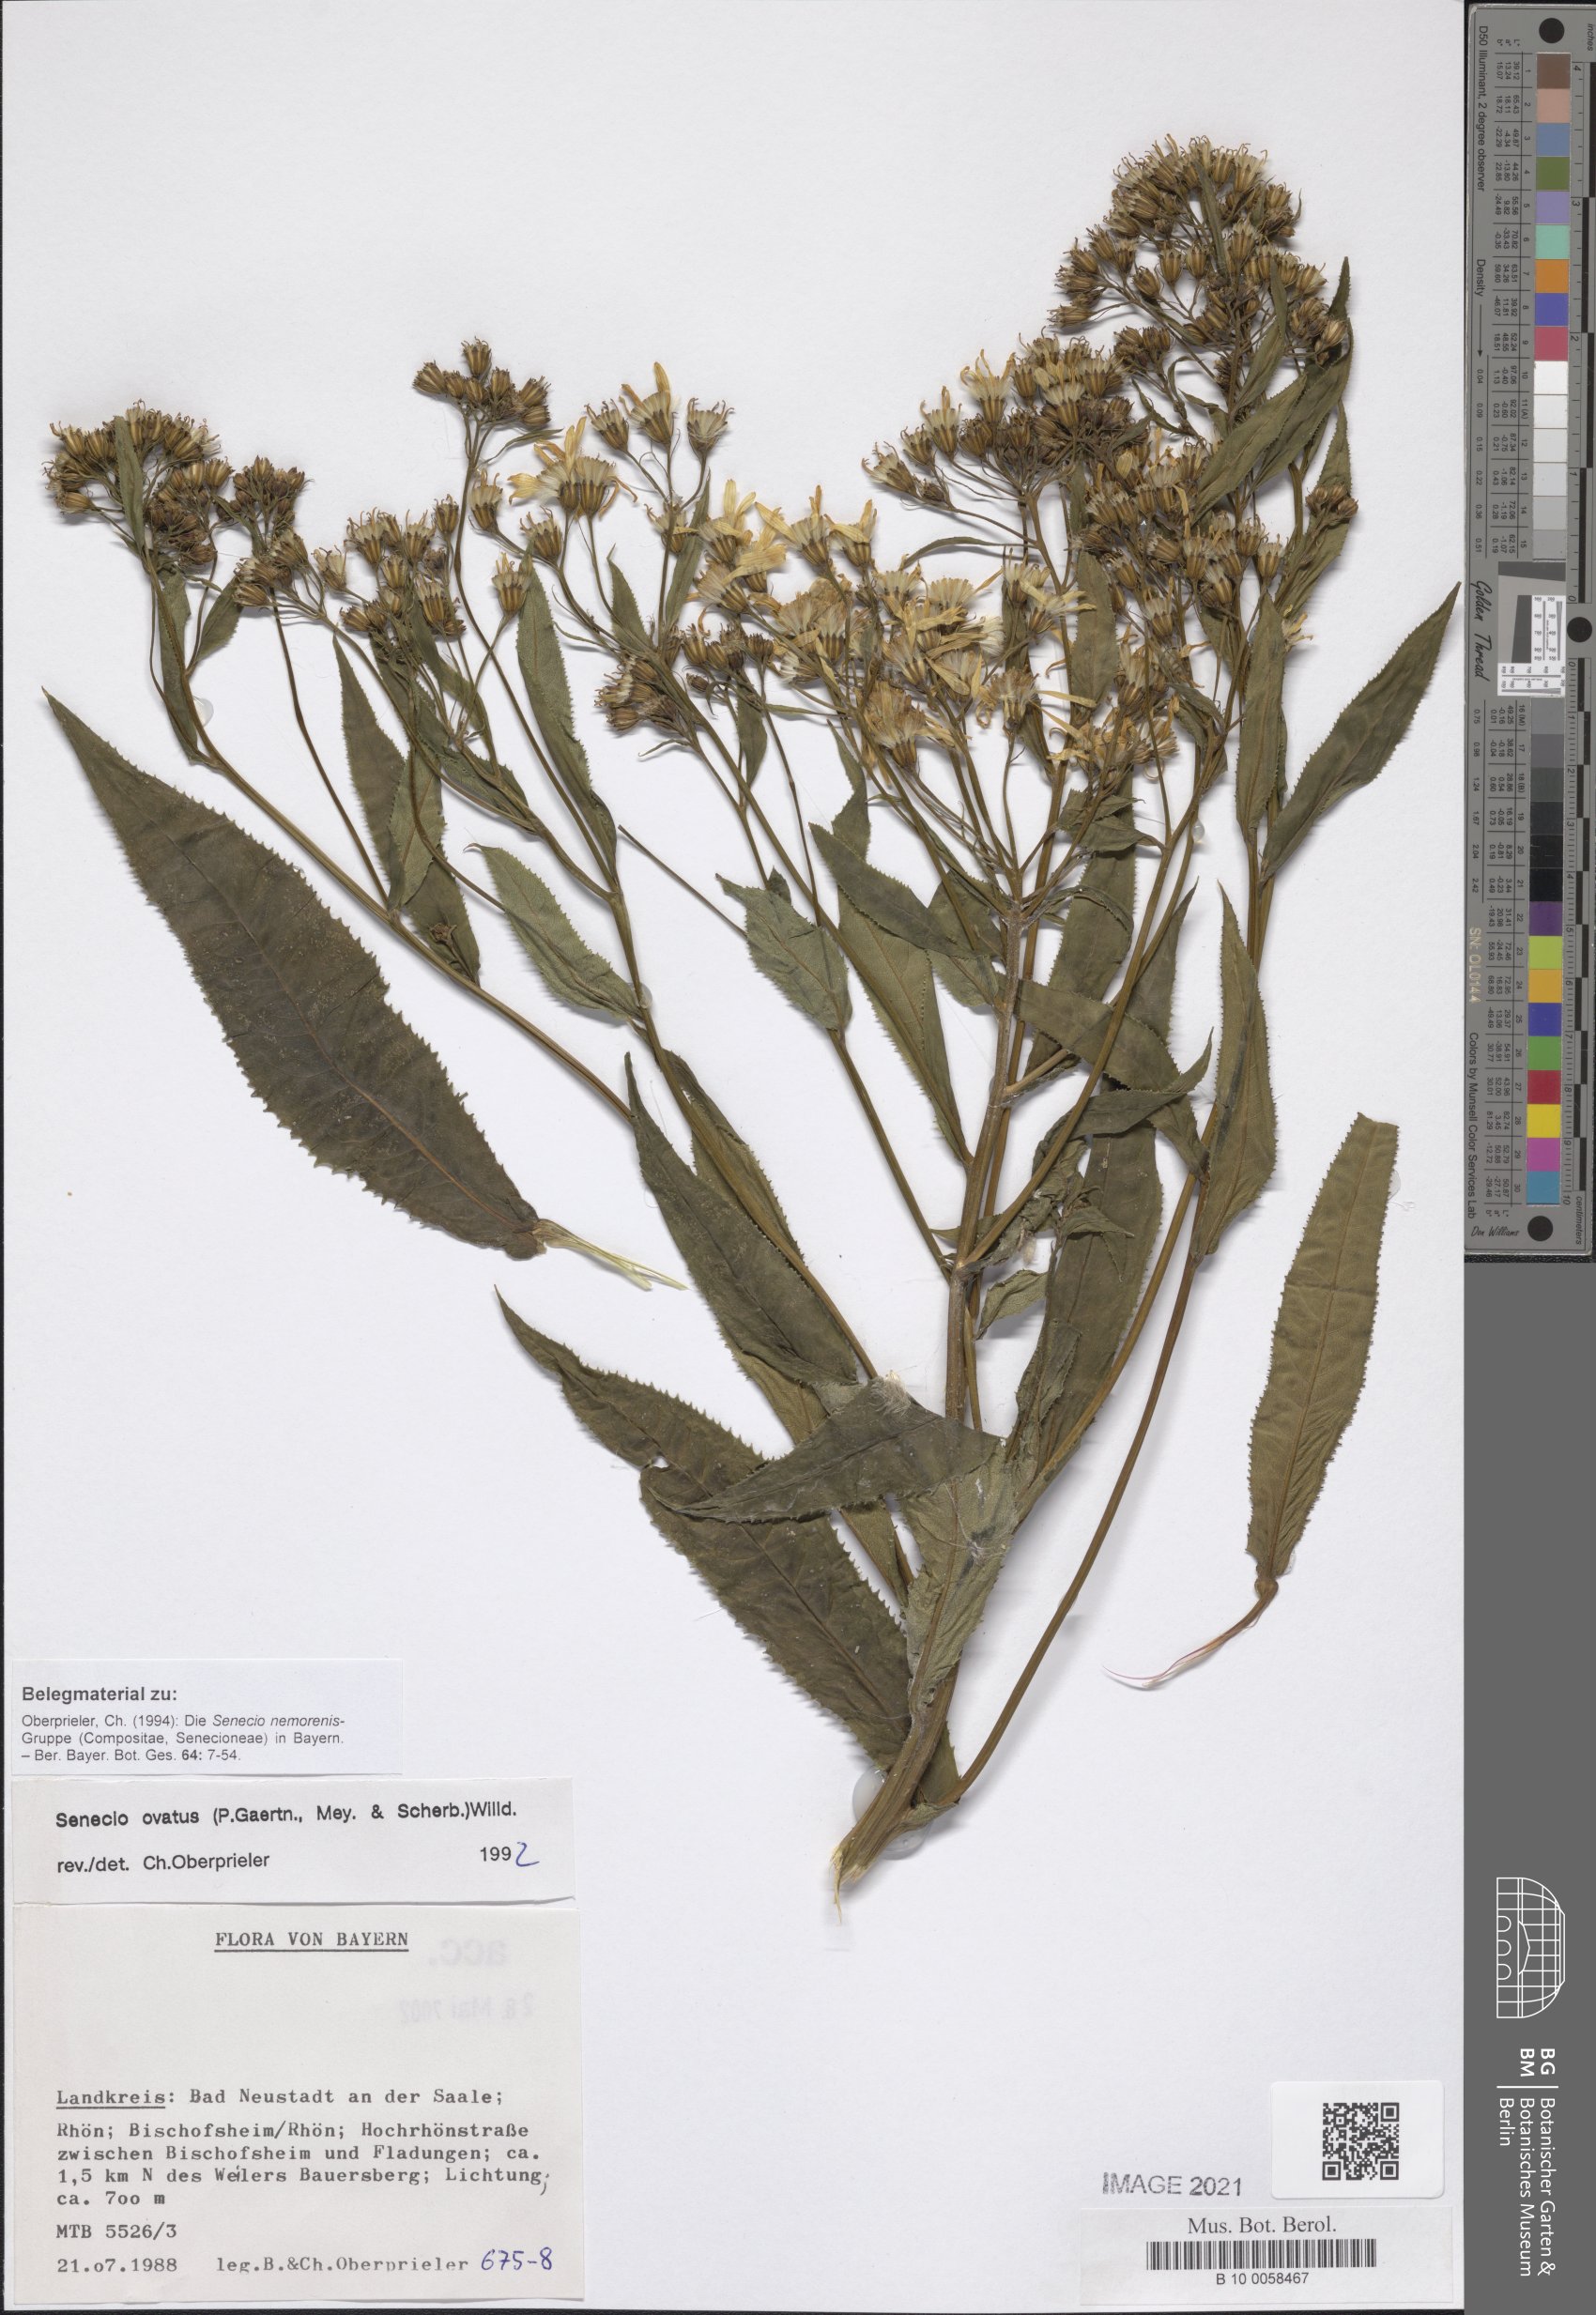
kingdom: Plantae
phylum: Tracheophyta
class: Magnoliopsida
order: Asterales
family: Asteraceae
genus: Senecio
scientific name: Senecio ovatus
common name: Wood ragwort
